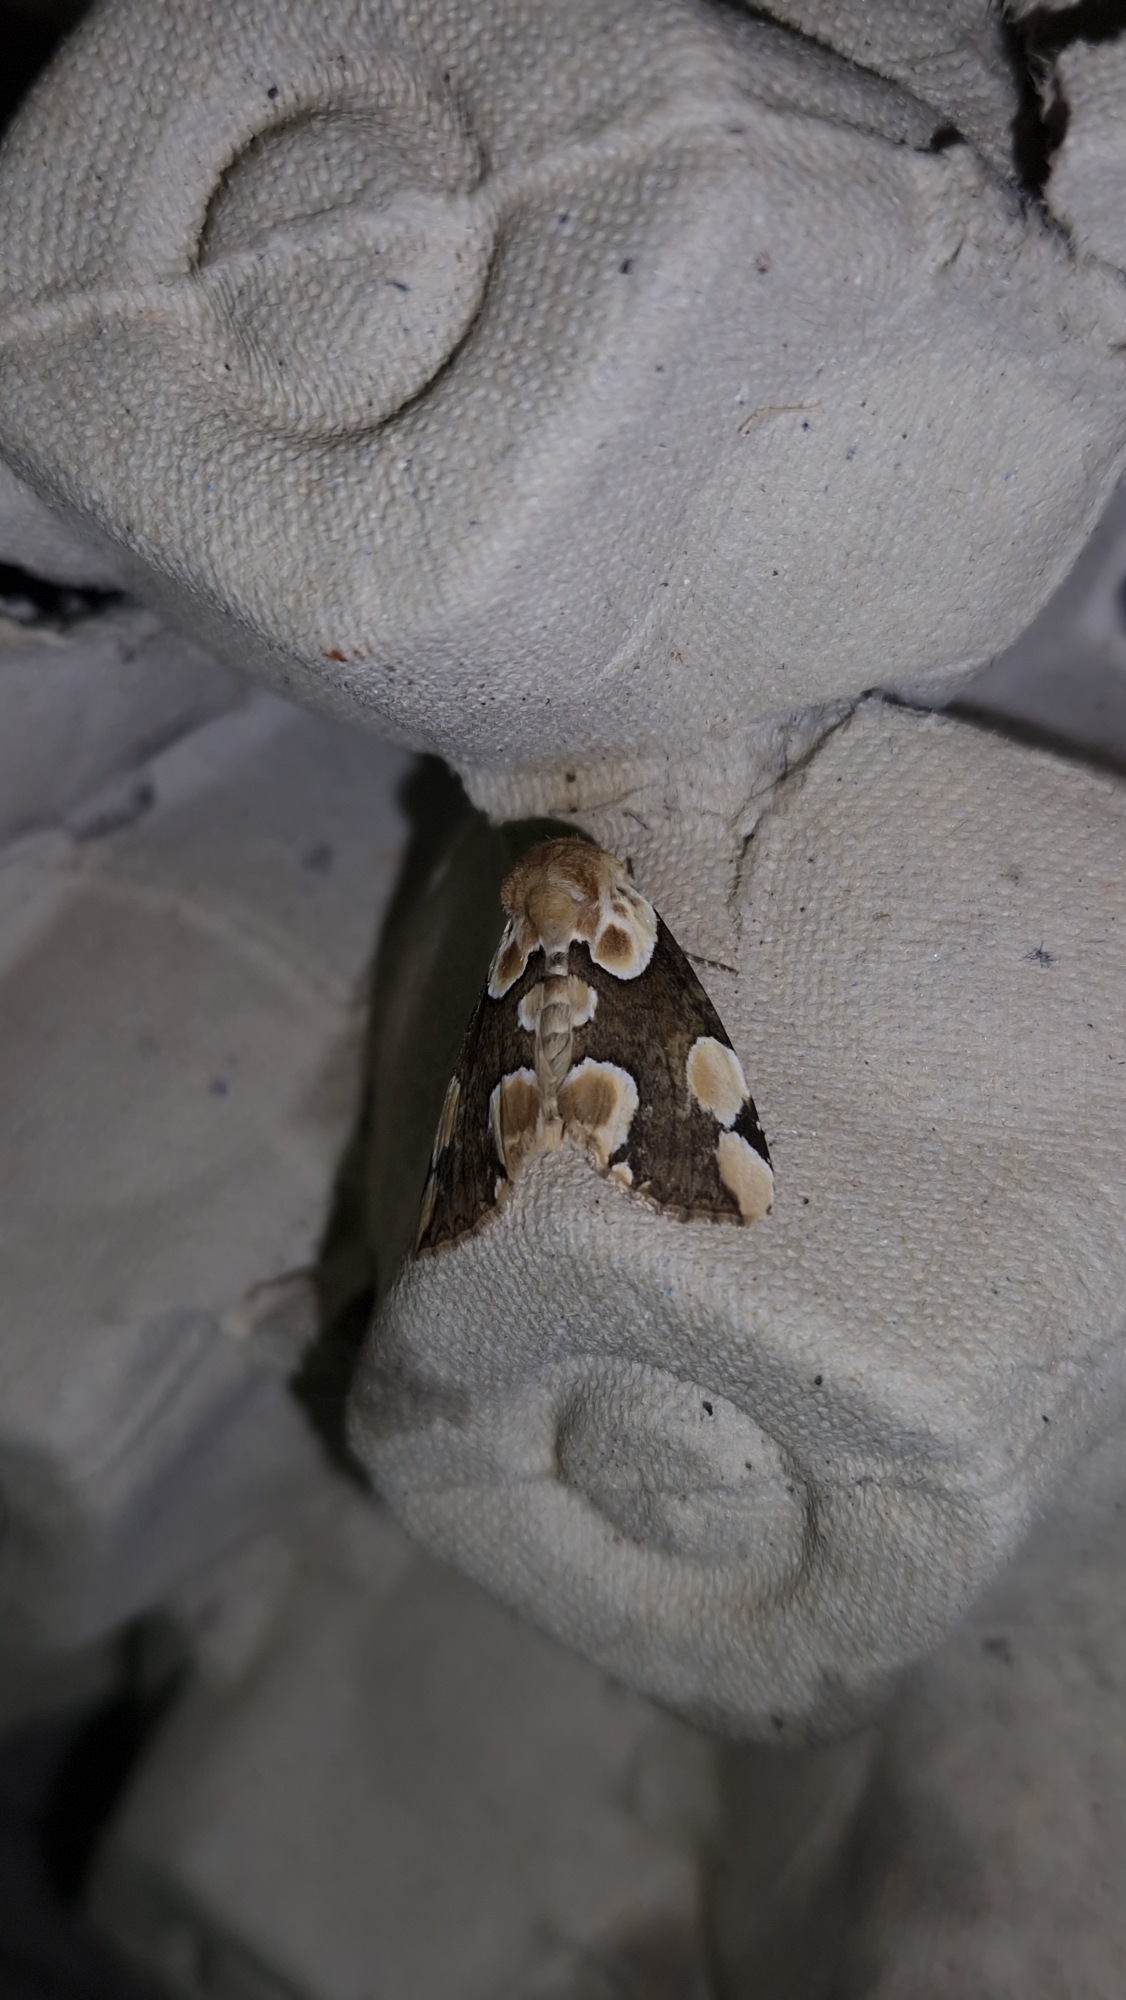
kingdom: Animalia
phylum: Arthropoda
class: Insecta
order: Lepidoptera
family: Drepanidae
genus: Thyatira
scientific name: Thyatira batis
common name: Rosenplet
